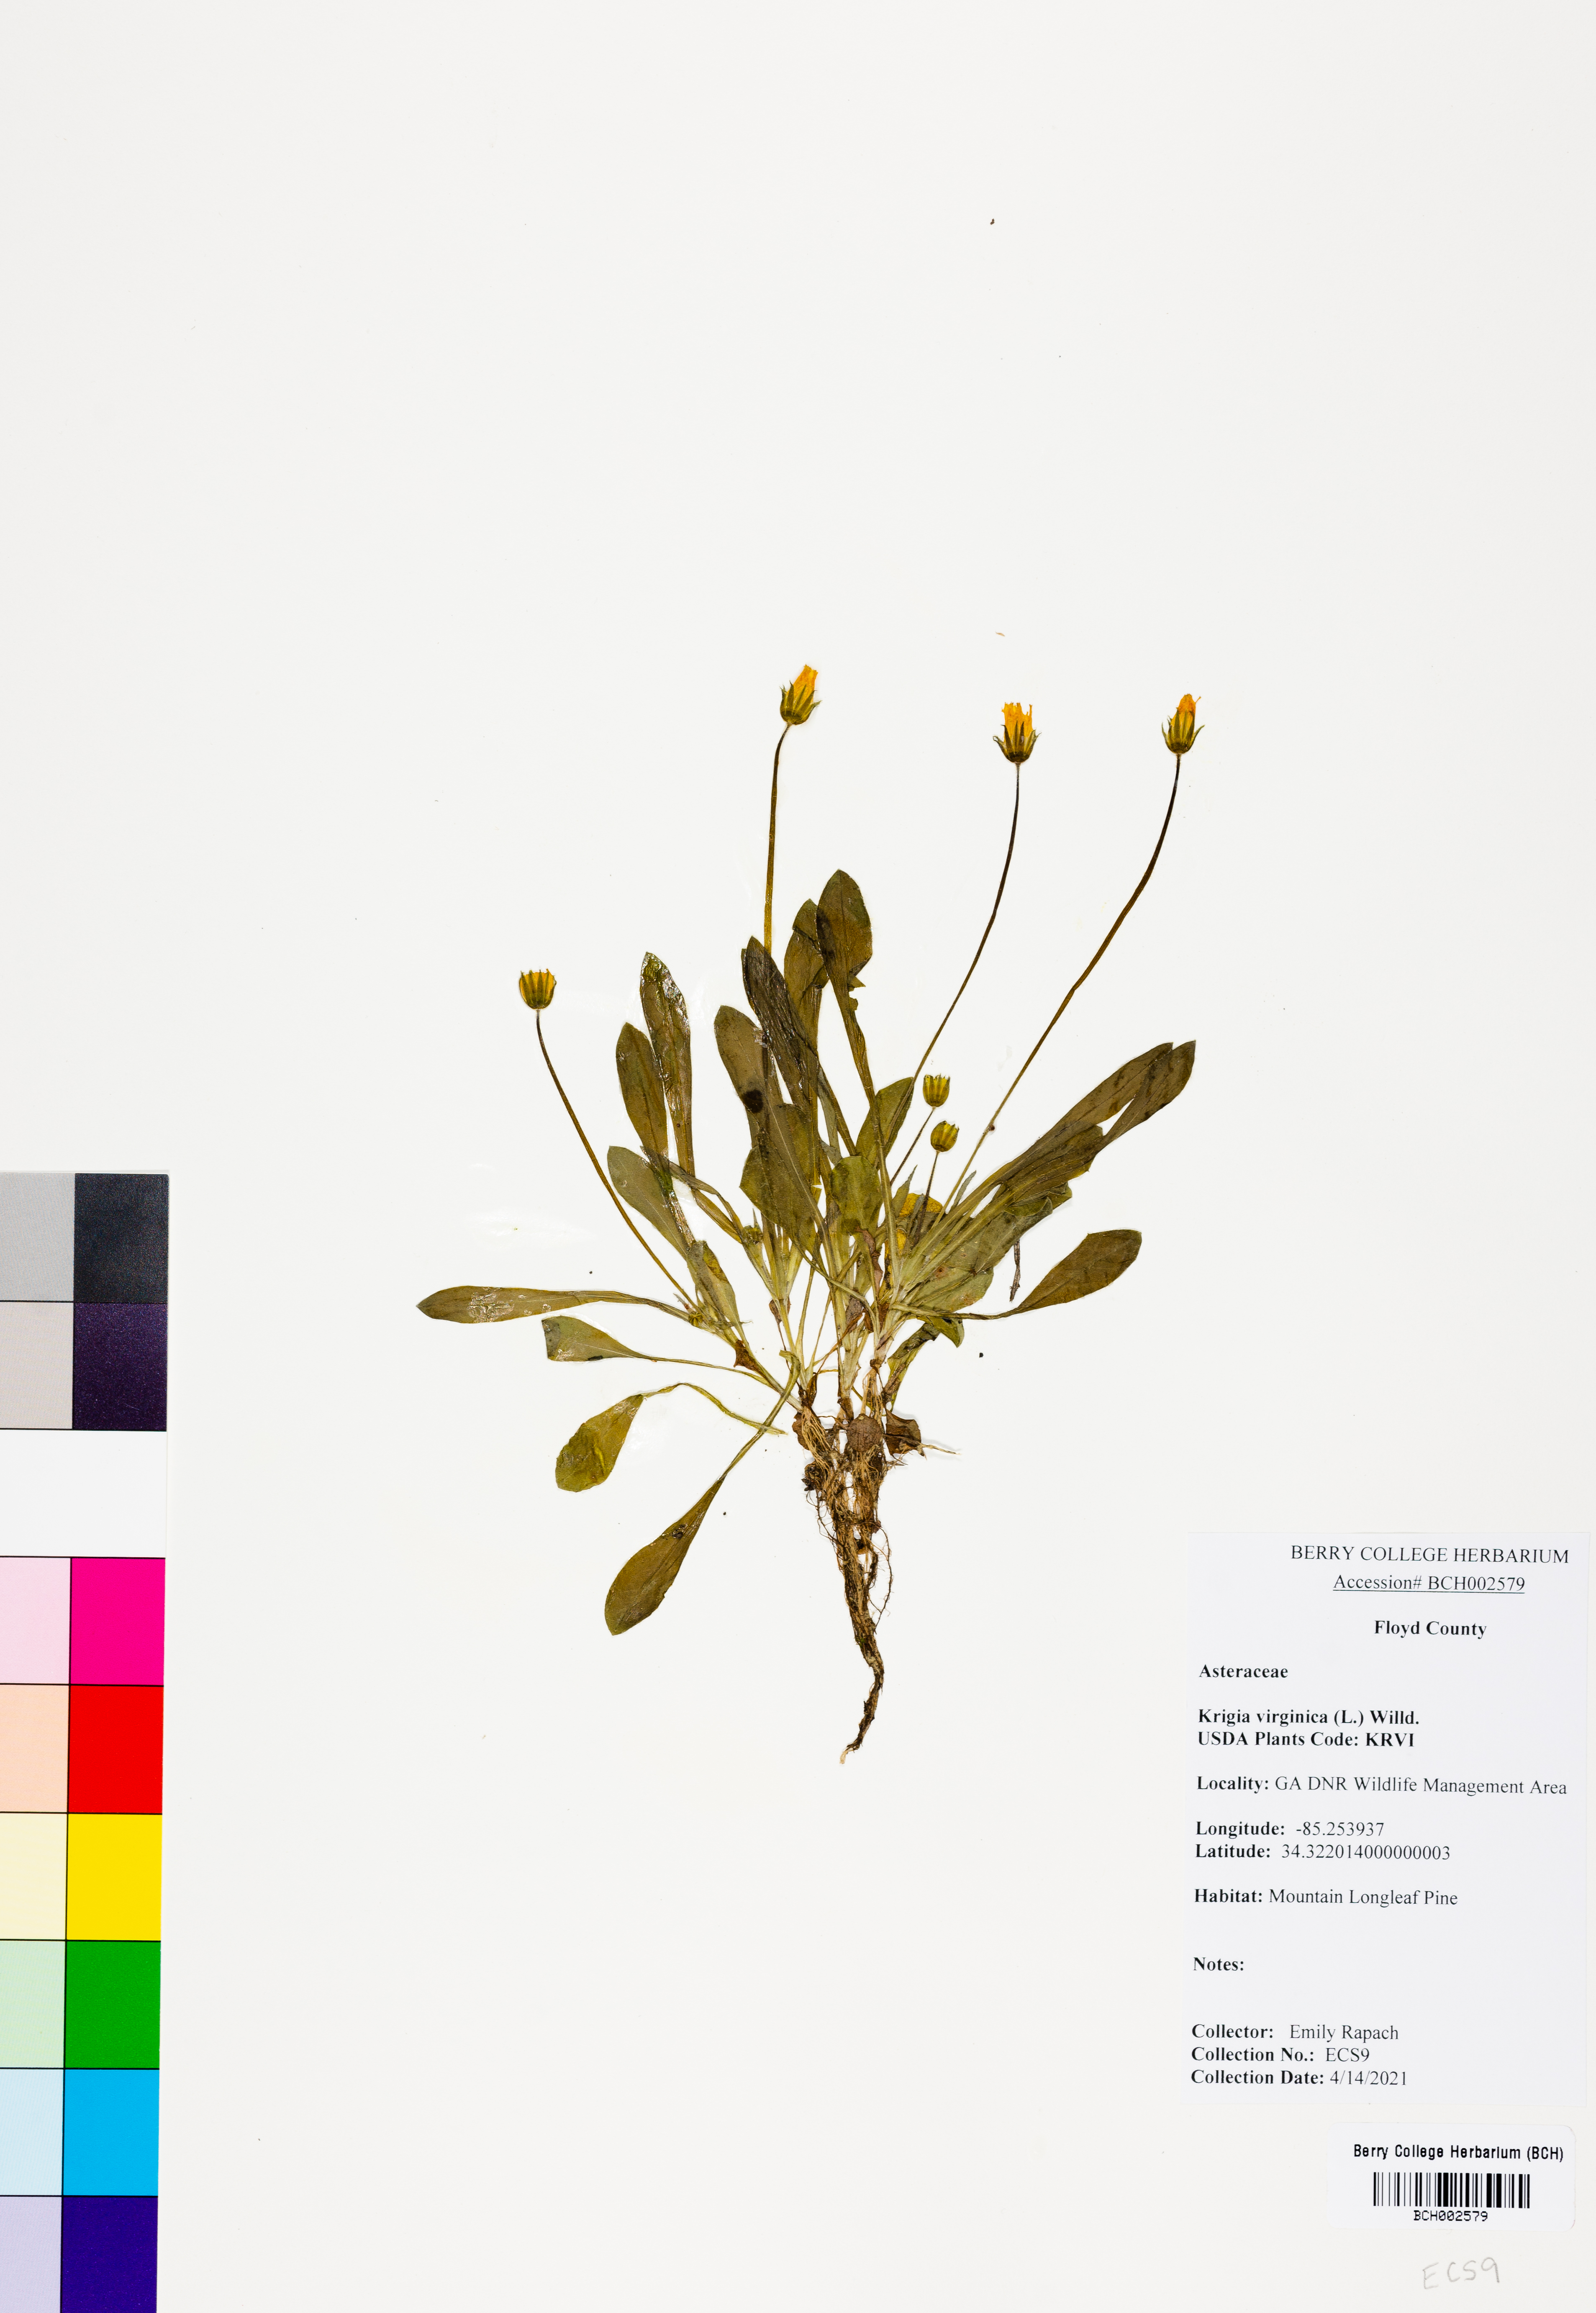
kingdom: Plantae
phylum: Tracheophyta
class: Magnoliopsida
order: Asterales
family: Asteraceae
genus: Krigia
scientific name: Krigia virginica
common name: Virginia dwarf-dandelion
